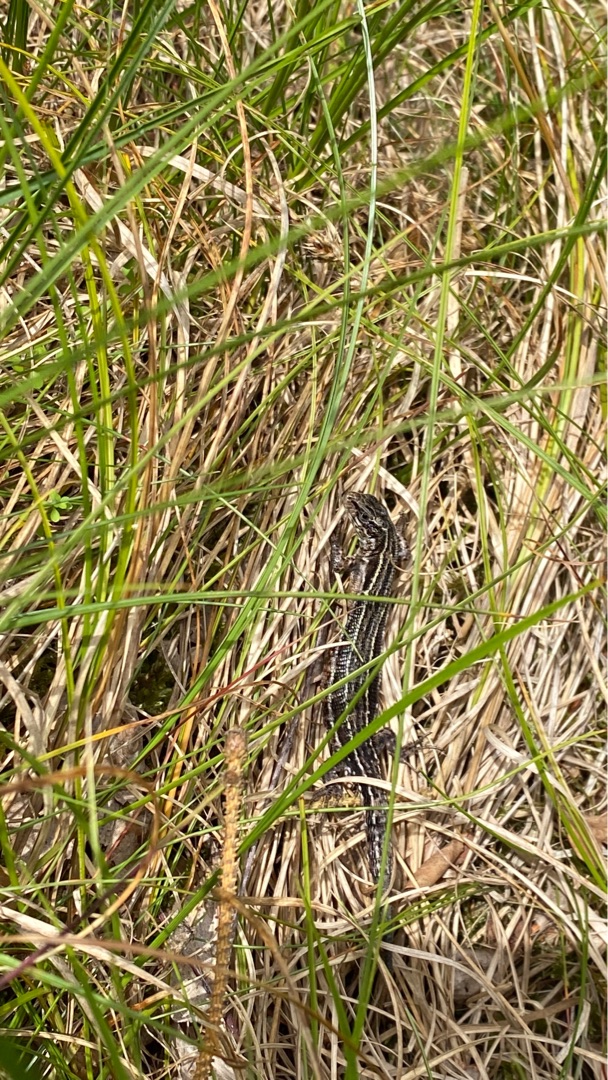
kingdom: Animalia
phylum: Chordata
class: Squamata
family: Lacertidae
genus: Zootoca
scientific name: Zootoca vivipara
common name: Skovfirben
